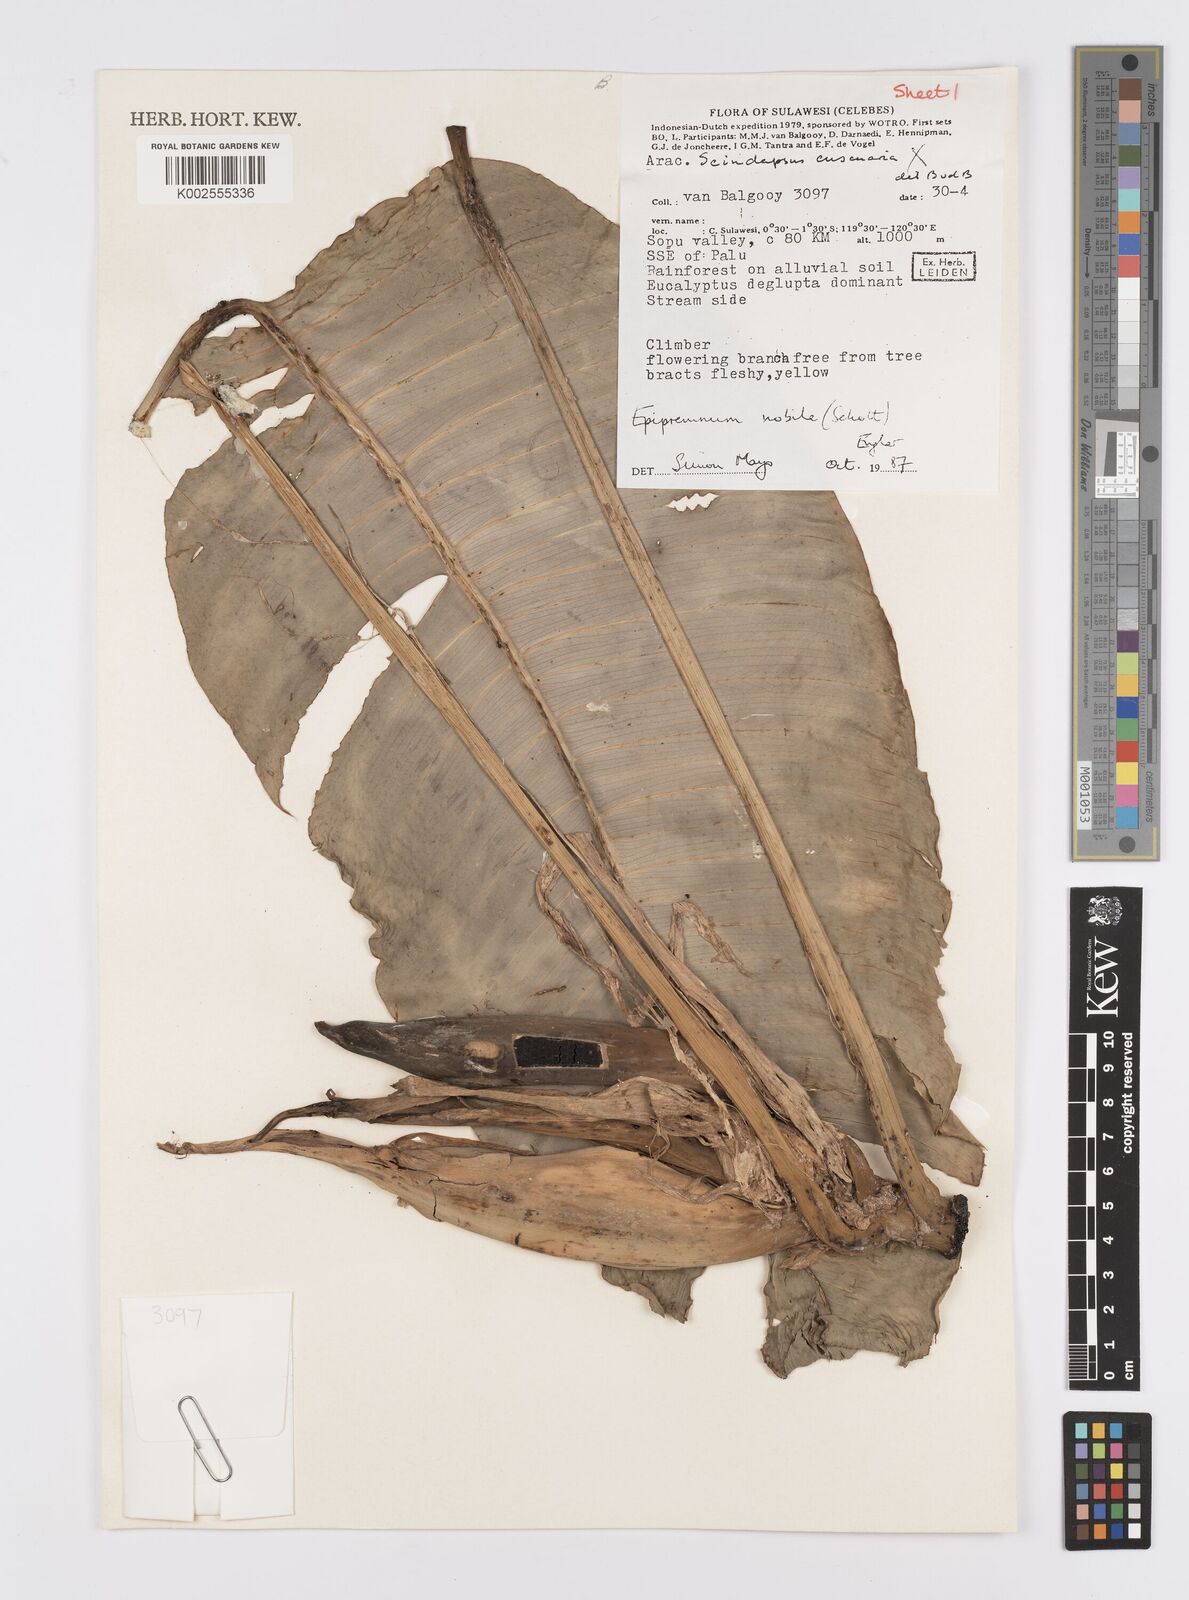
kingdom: Plantae
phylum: Tracheophyta
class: Liliopsida
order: Alismatales
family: Araceae
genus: Epipremnum
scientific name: Epipremnum nobile
